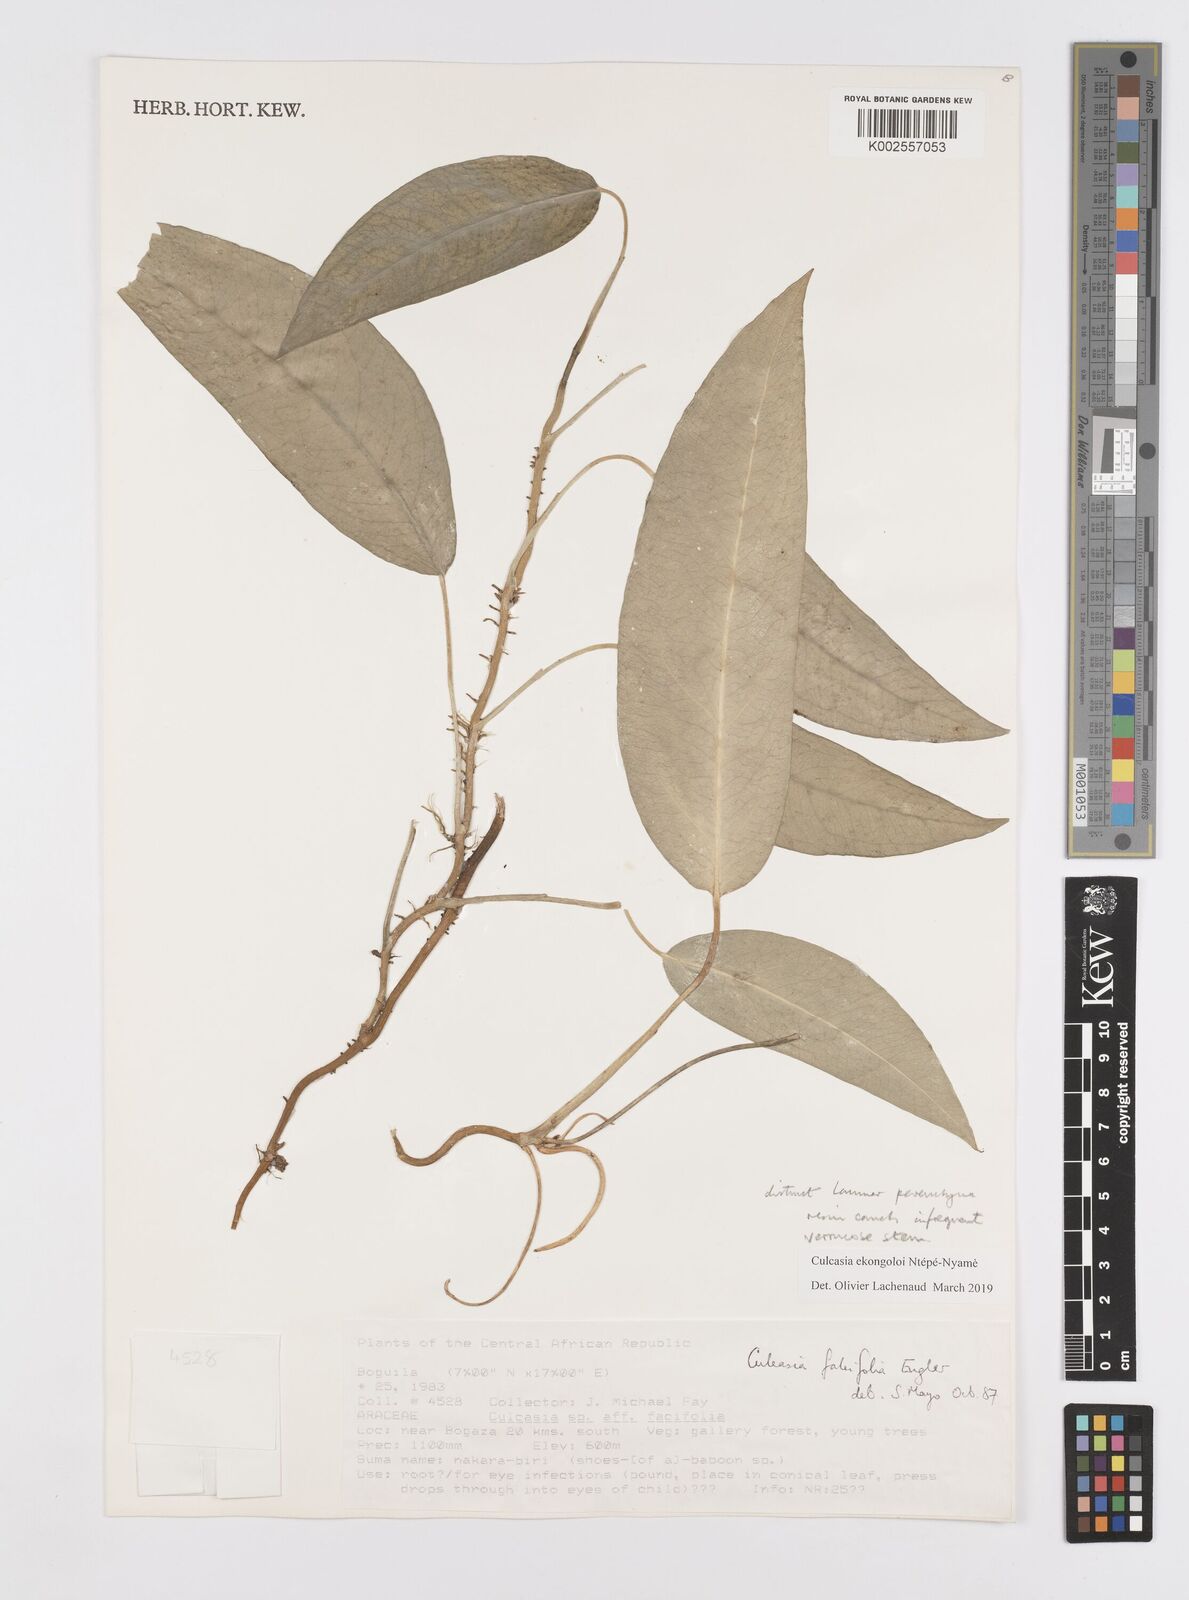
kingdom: Plantae
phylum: Tracheophyta
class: Liliopsida
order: Alismatales
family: Araceae
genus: Culcasia
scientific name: Culcasia ekongoloi
